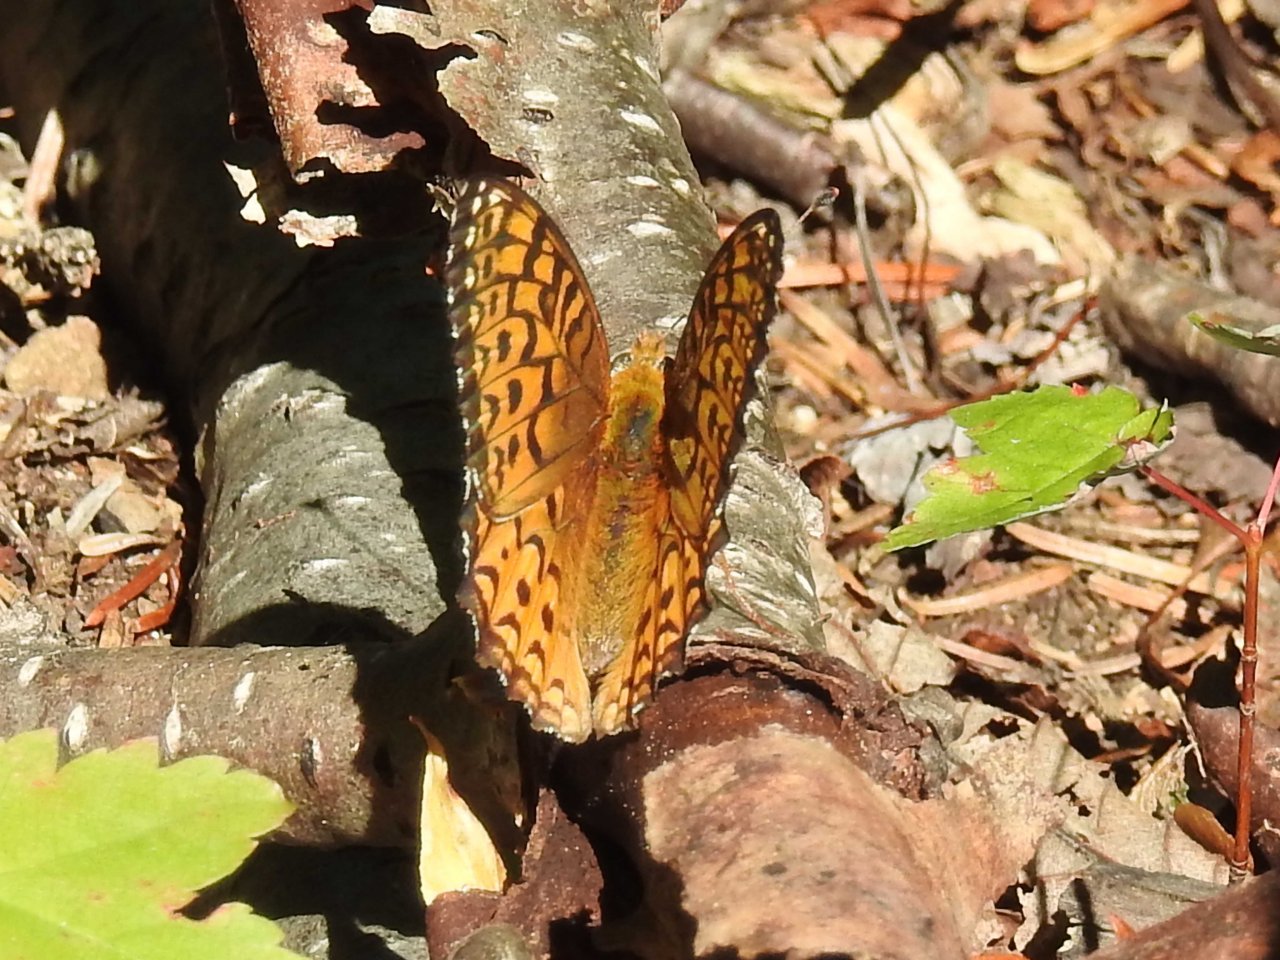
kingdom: Animalia
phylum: Arthropoda
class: Insecta
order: Lepidoptera
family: Nymphalidae
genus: Speyeria
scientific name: Speyeria atlantis
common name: Atlantis Fritillary
